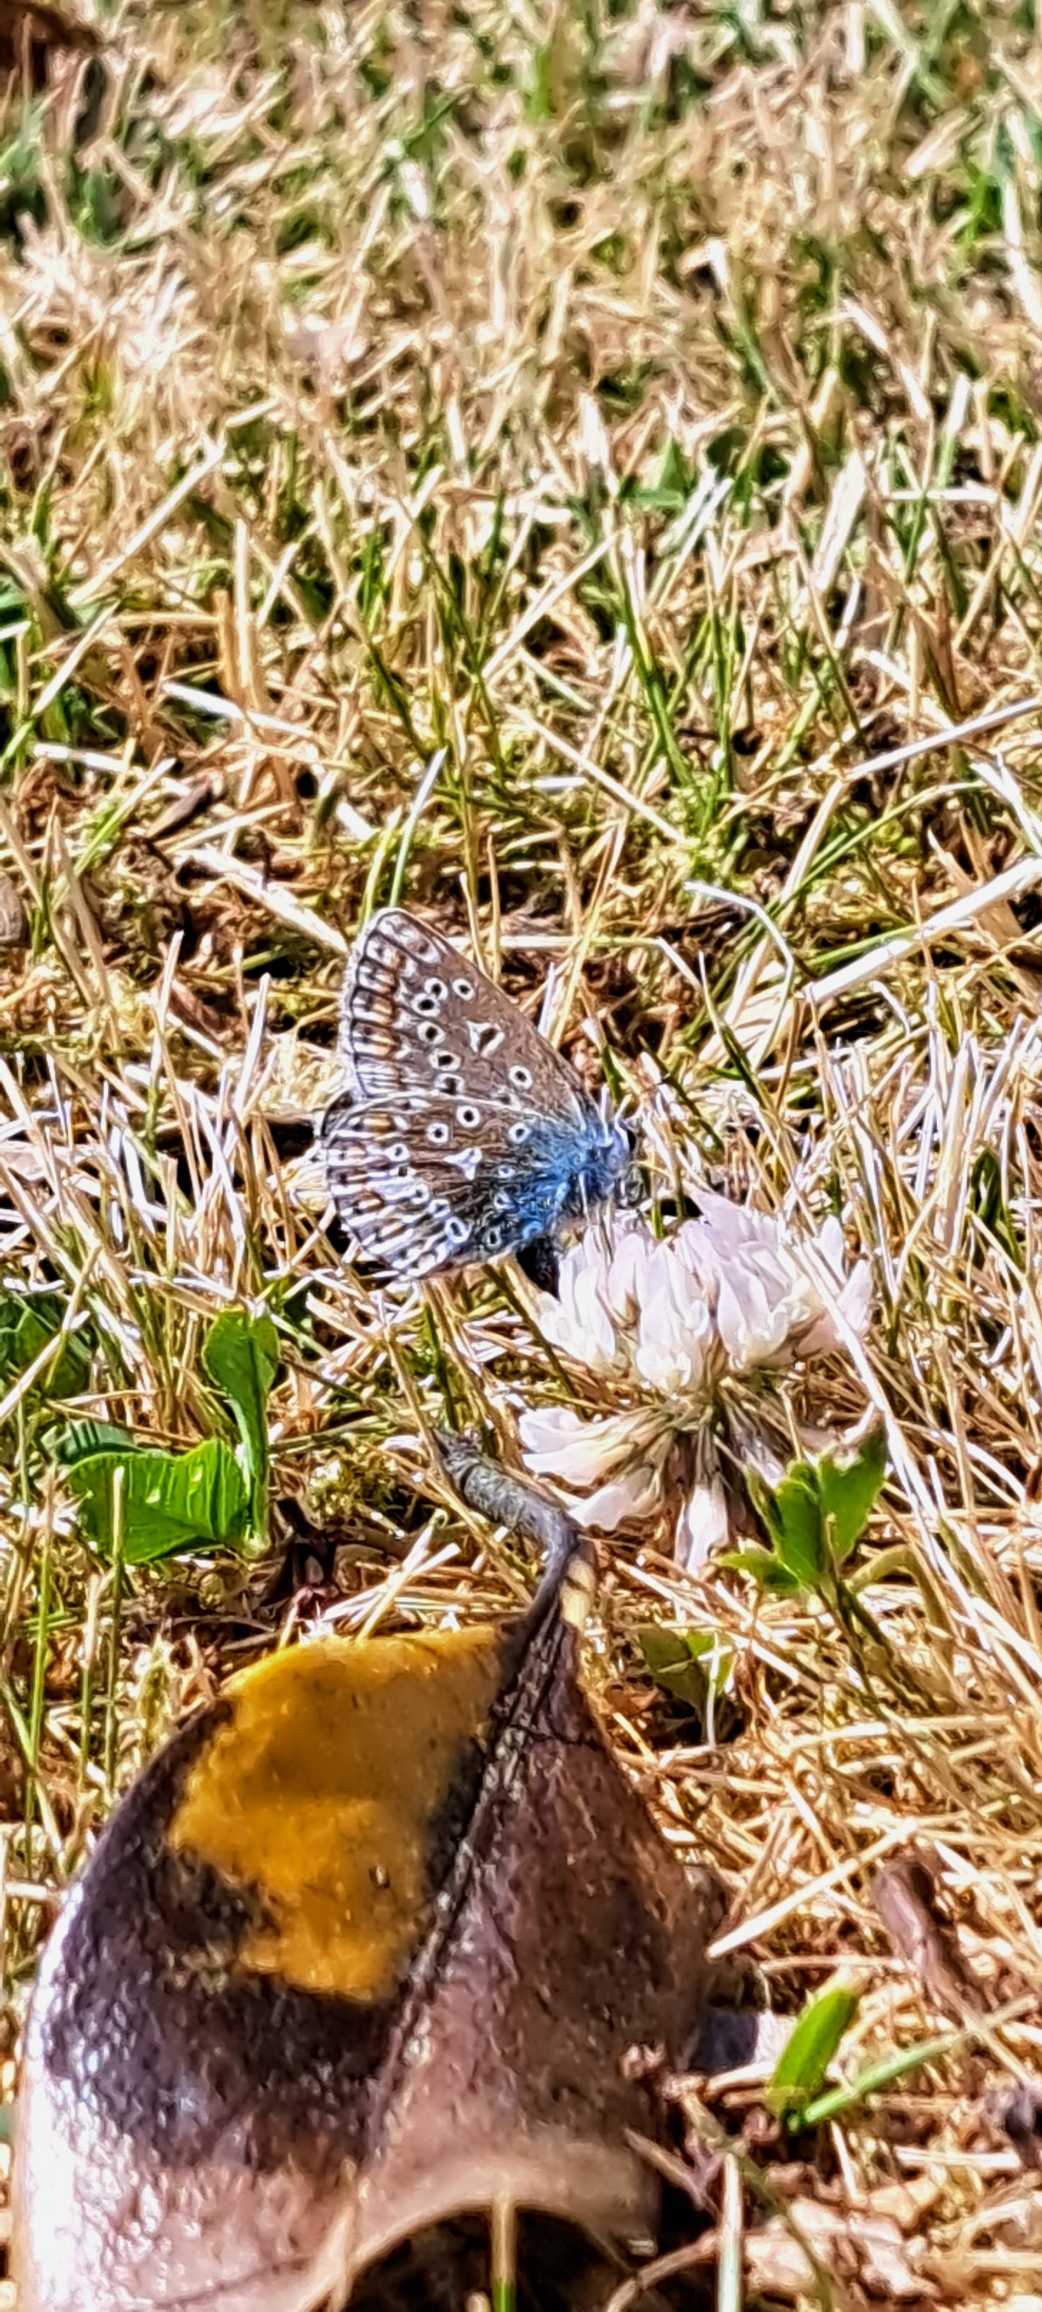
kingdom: Animalia
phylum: Arthropoda
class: Insecta
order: Lepidoptera
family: Lycaenidae
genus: Polyommatus
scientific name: Polyommatus icarus
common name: Almindelig blåfugl
